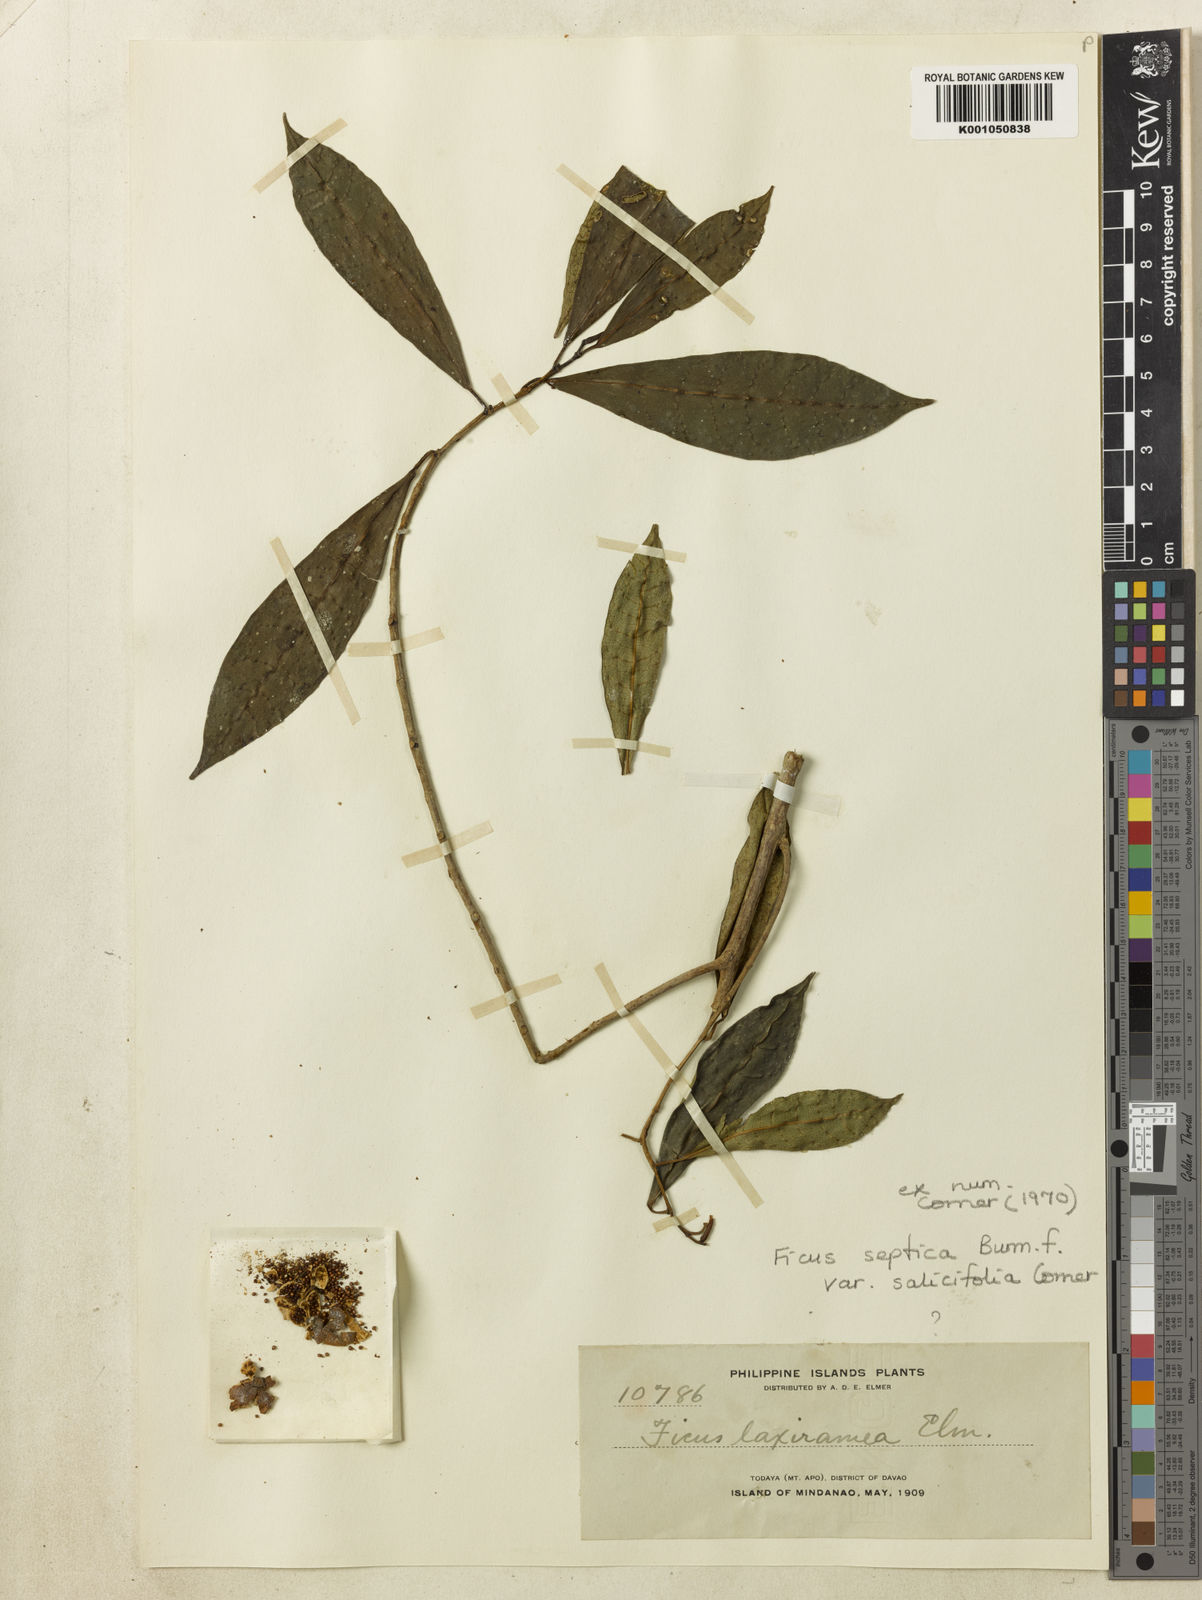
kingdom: Plantae
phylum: Tracheophyta
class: Magnoliopsida
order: Rosales
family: Moraceae
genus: Ficus
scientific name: Ficus septica
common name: Septic fig
